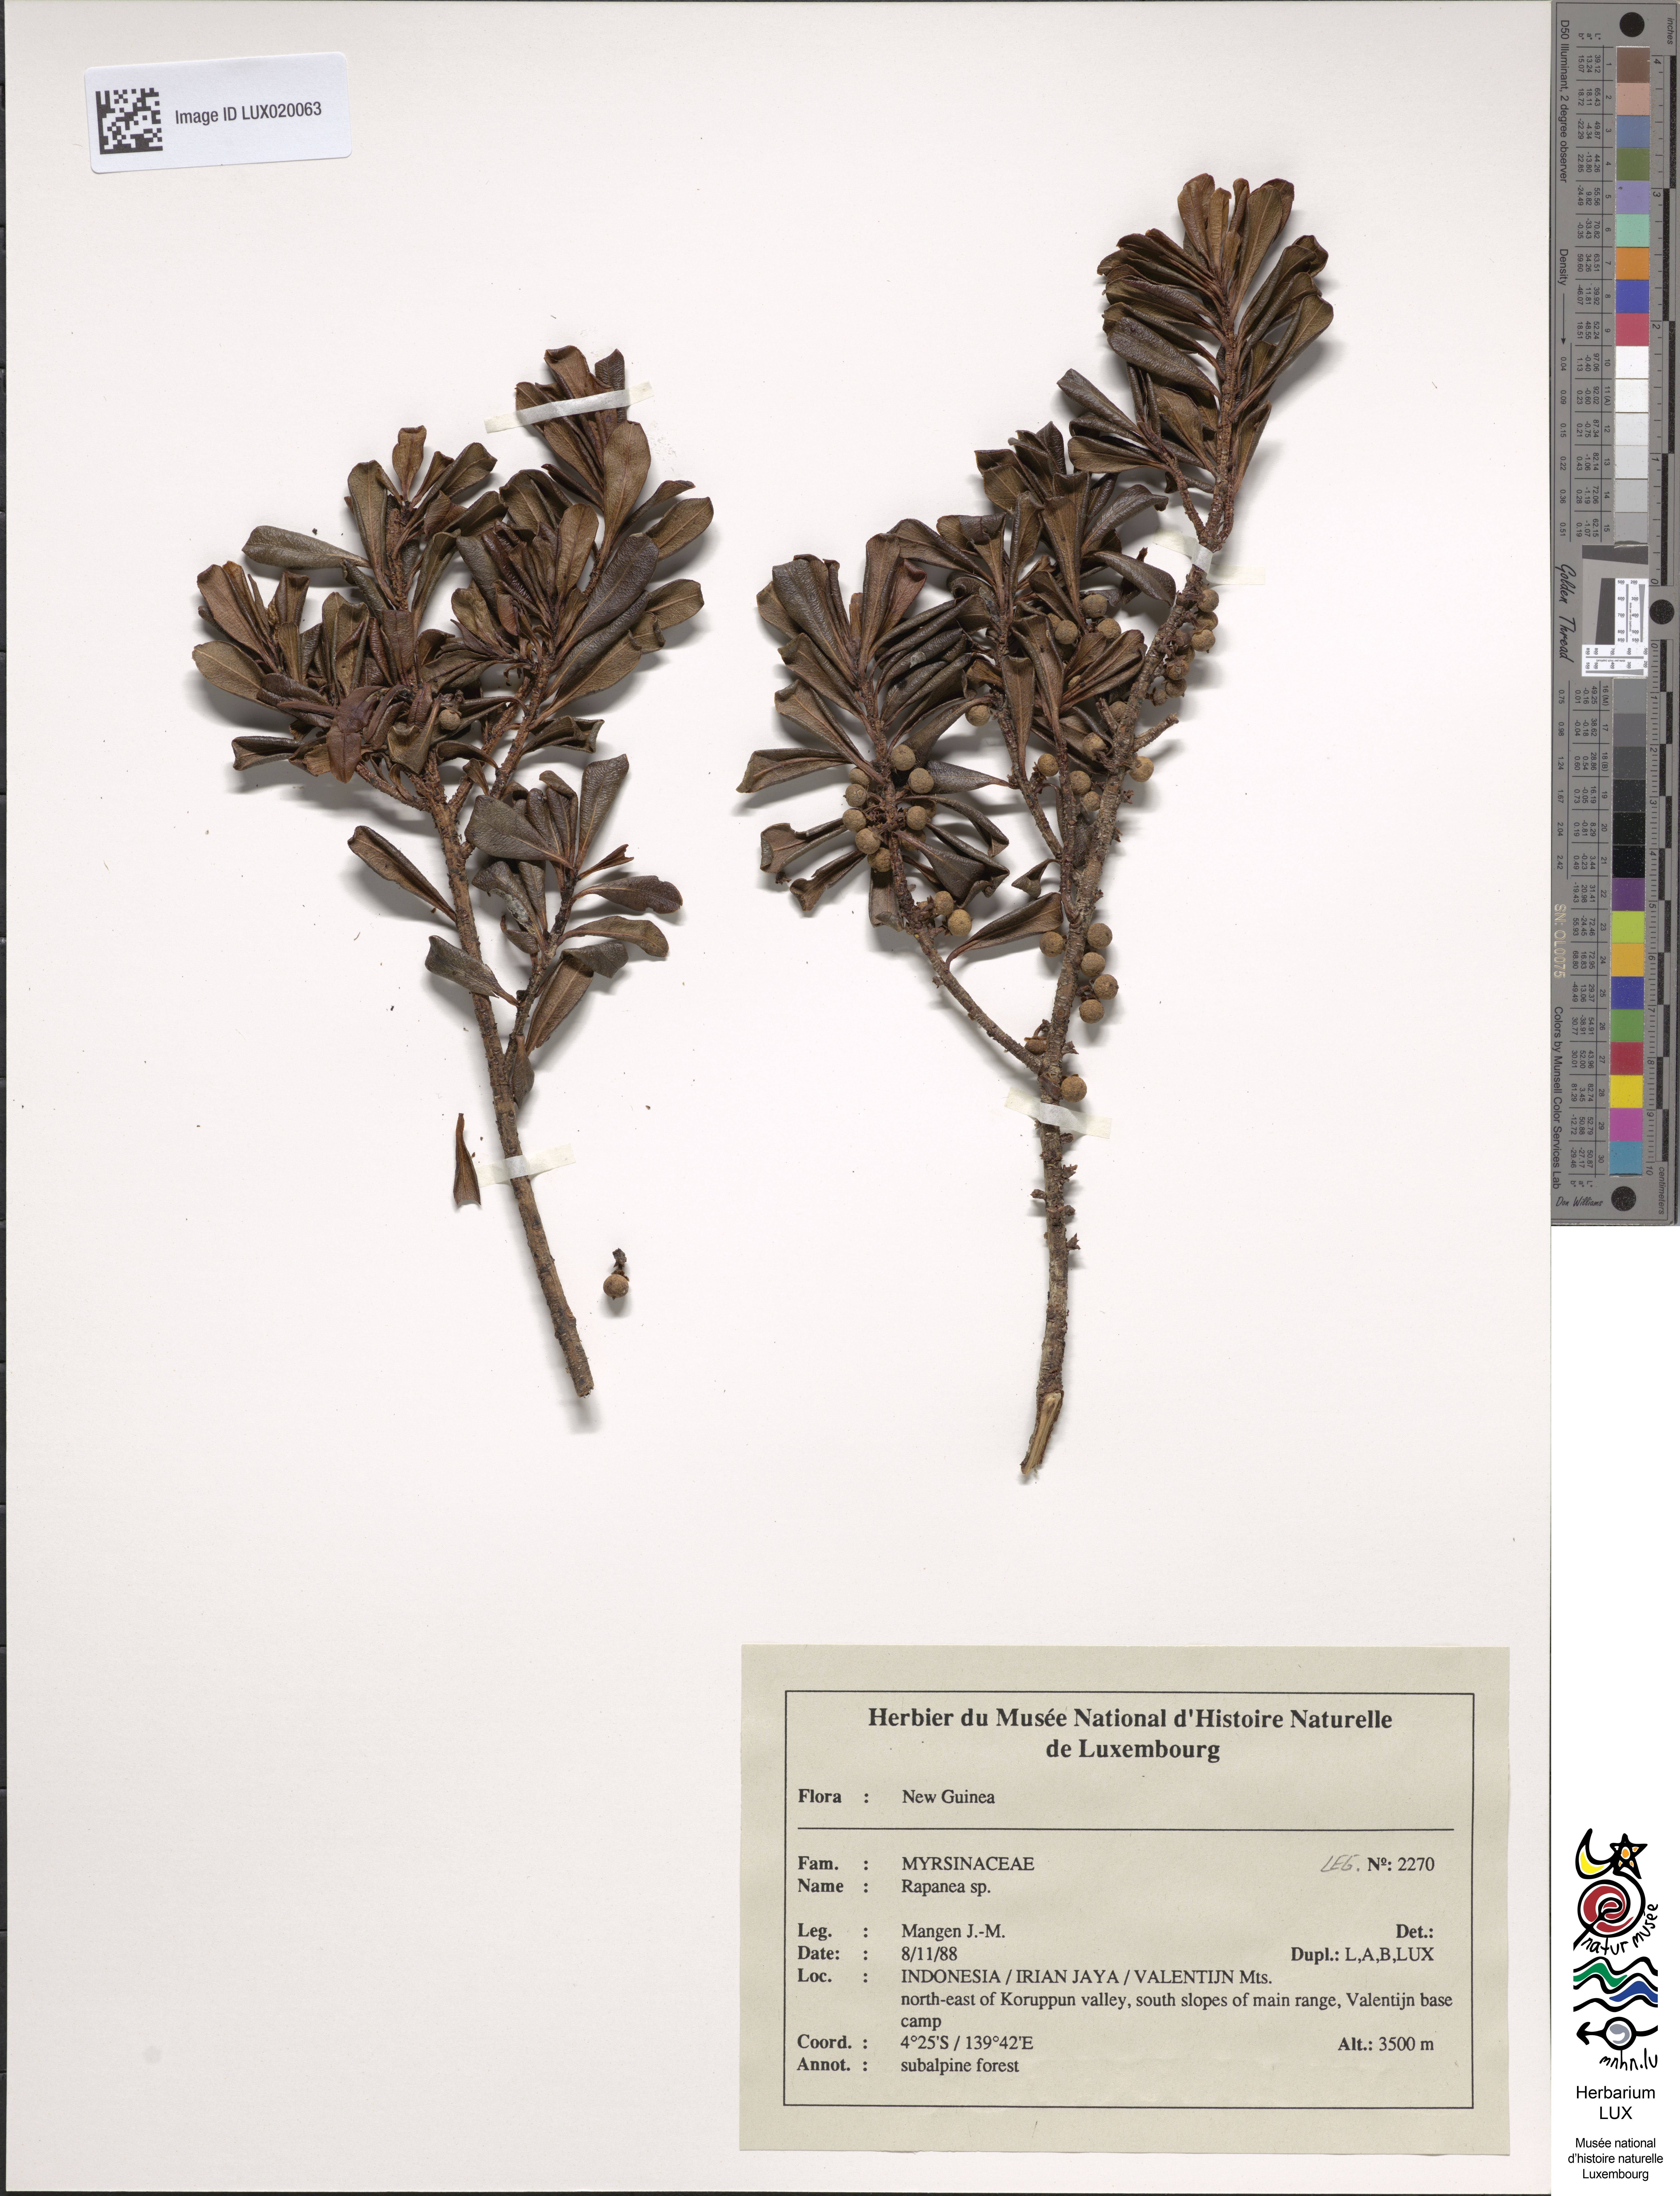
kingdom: Plantae
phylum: Tracheophyta
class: Magnoliopsida
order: Ericales
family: Primulaceae
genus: Myrsine
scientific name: Myrsine womersleyi
